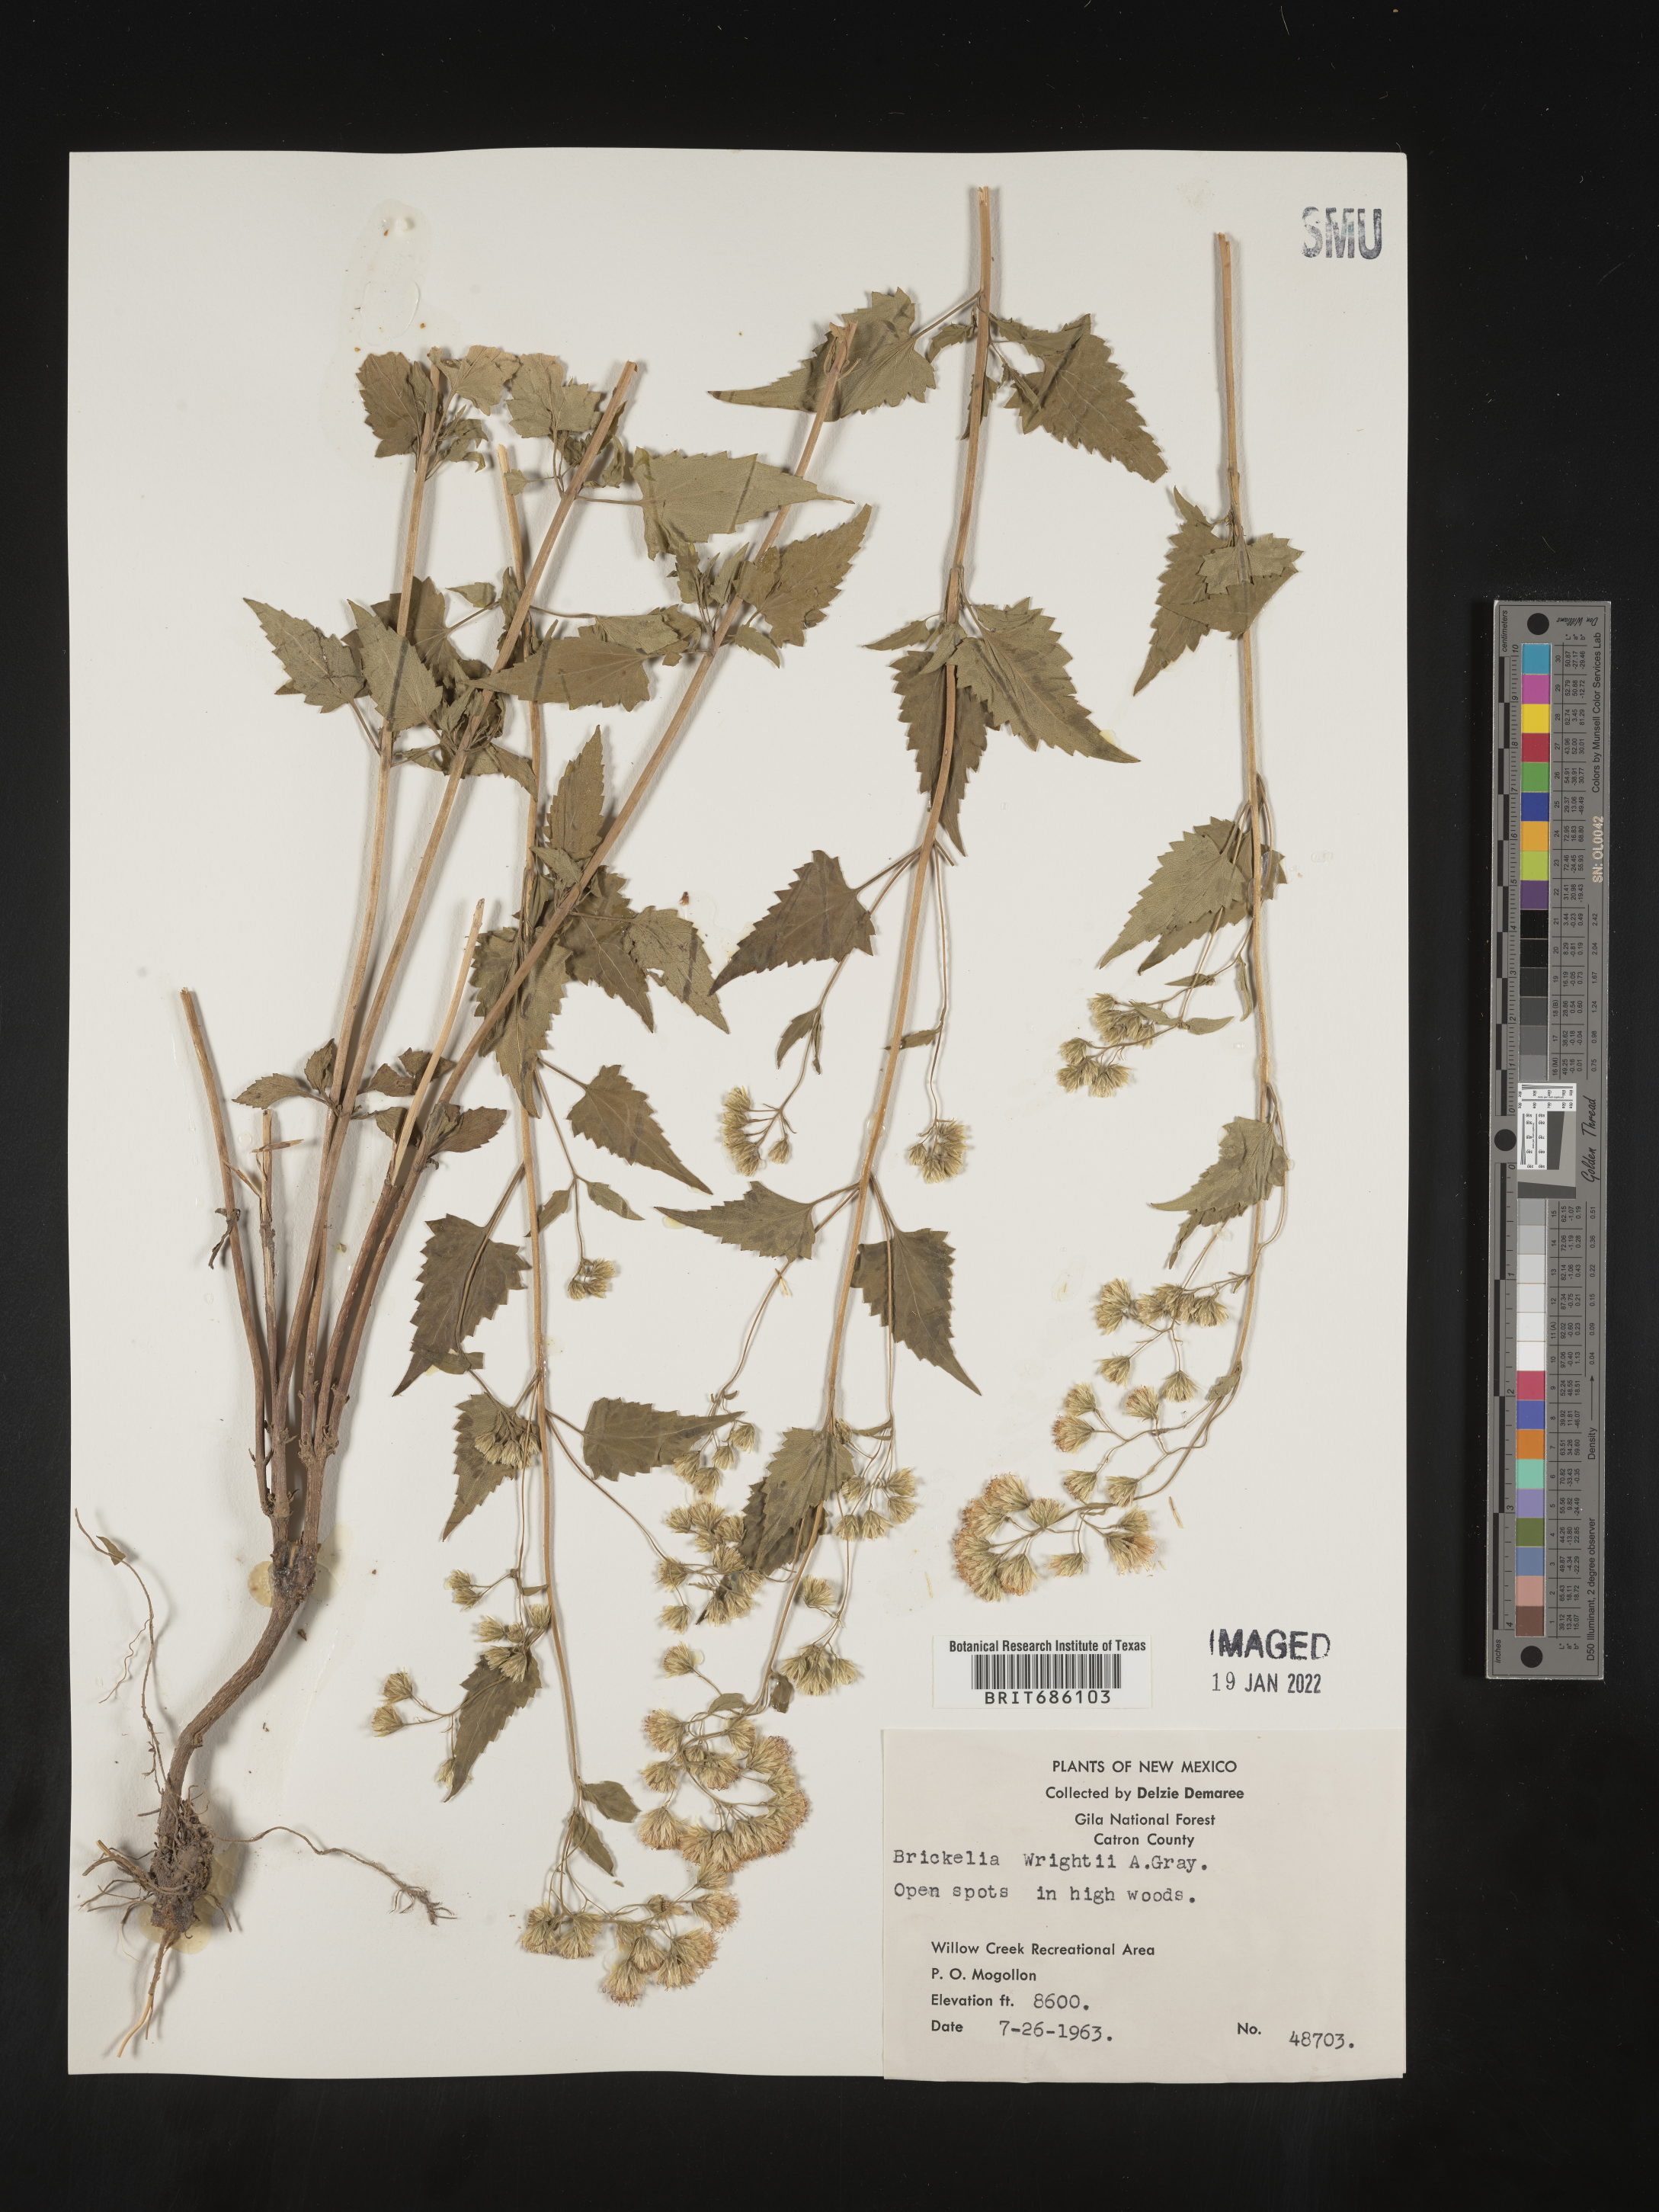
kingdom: Plantae
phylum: Tracheophyta
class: Magnoliopsida
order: Asterales
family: Asteraceae
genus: Brickellia
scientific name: Brickellia californica
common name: California brickellbush
